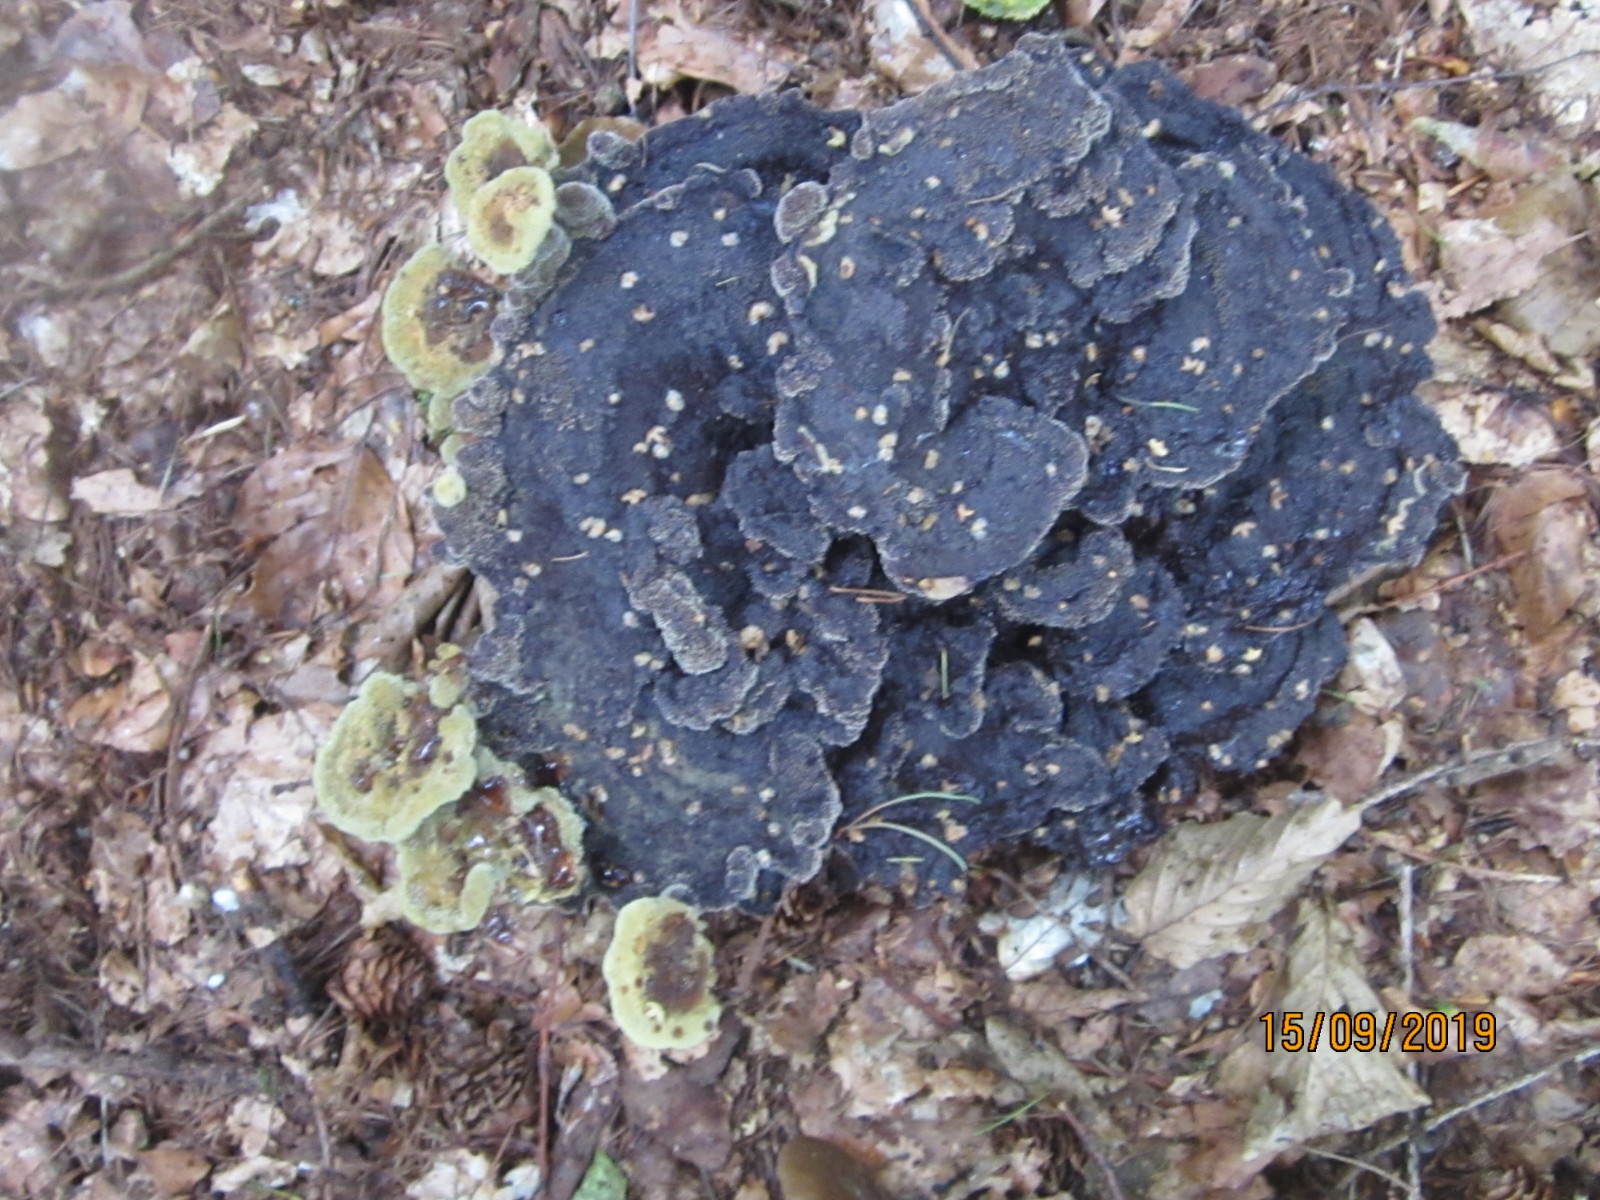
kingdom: Fungi
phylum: Basidiomycota
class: Agaricomycetes
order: Polyporales
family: Laetiporaceae
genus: Phaeolus
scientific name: Phaeolus schweinitzii
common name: brunporesvamp
